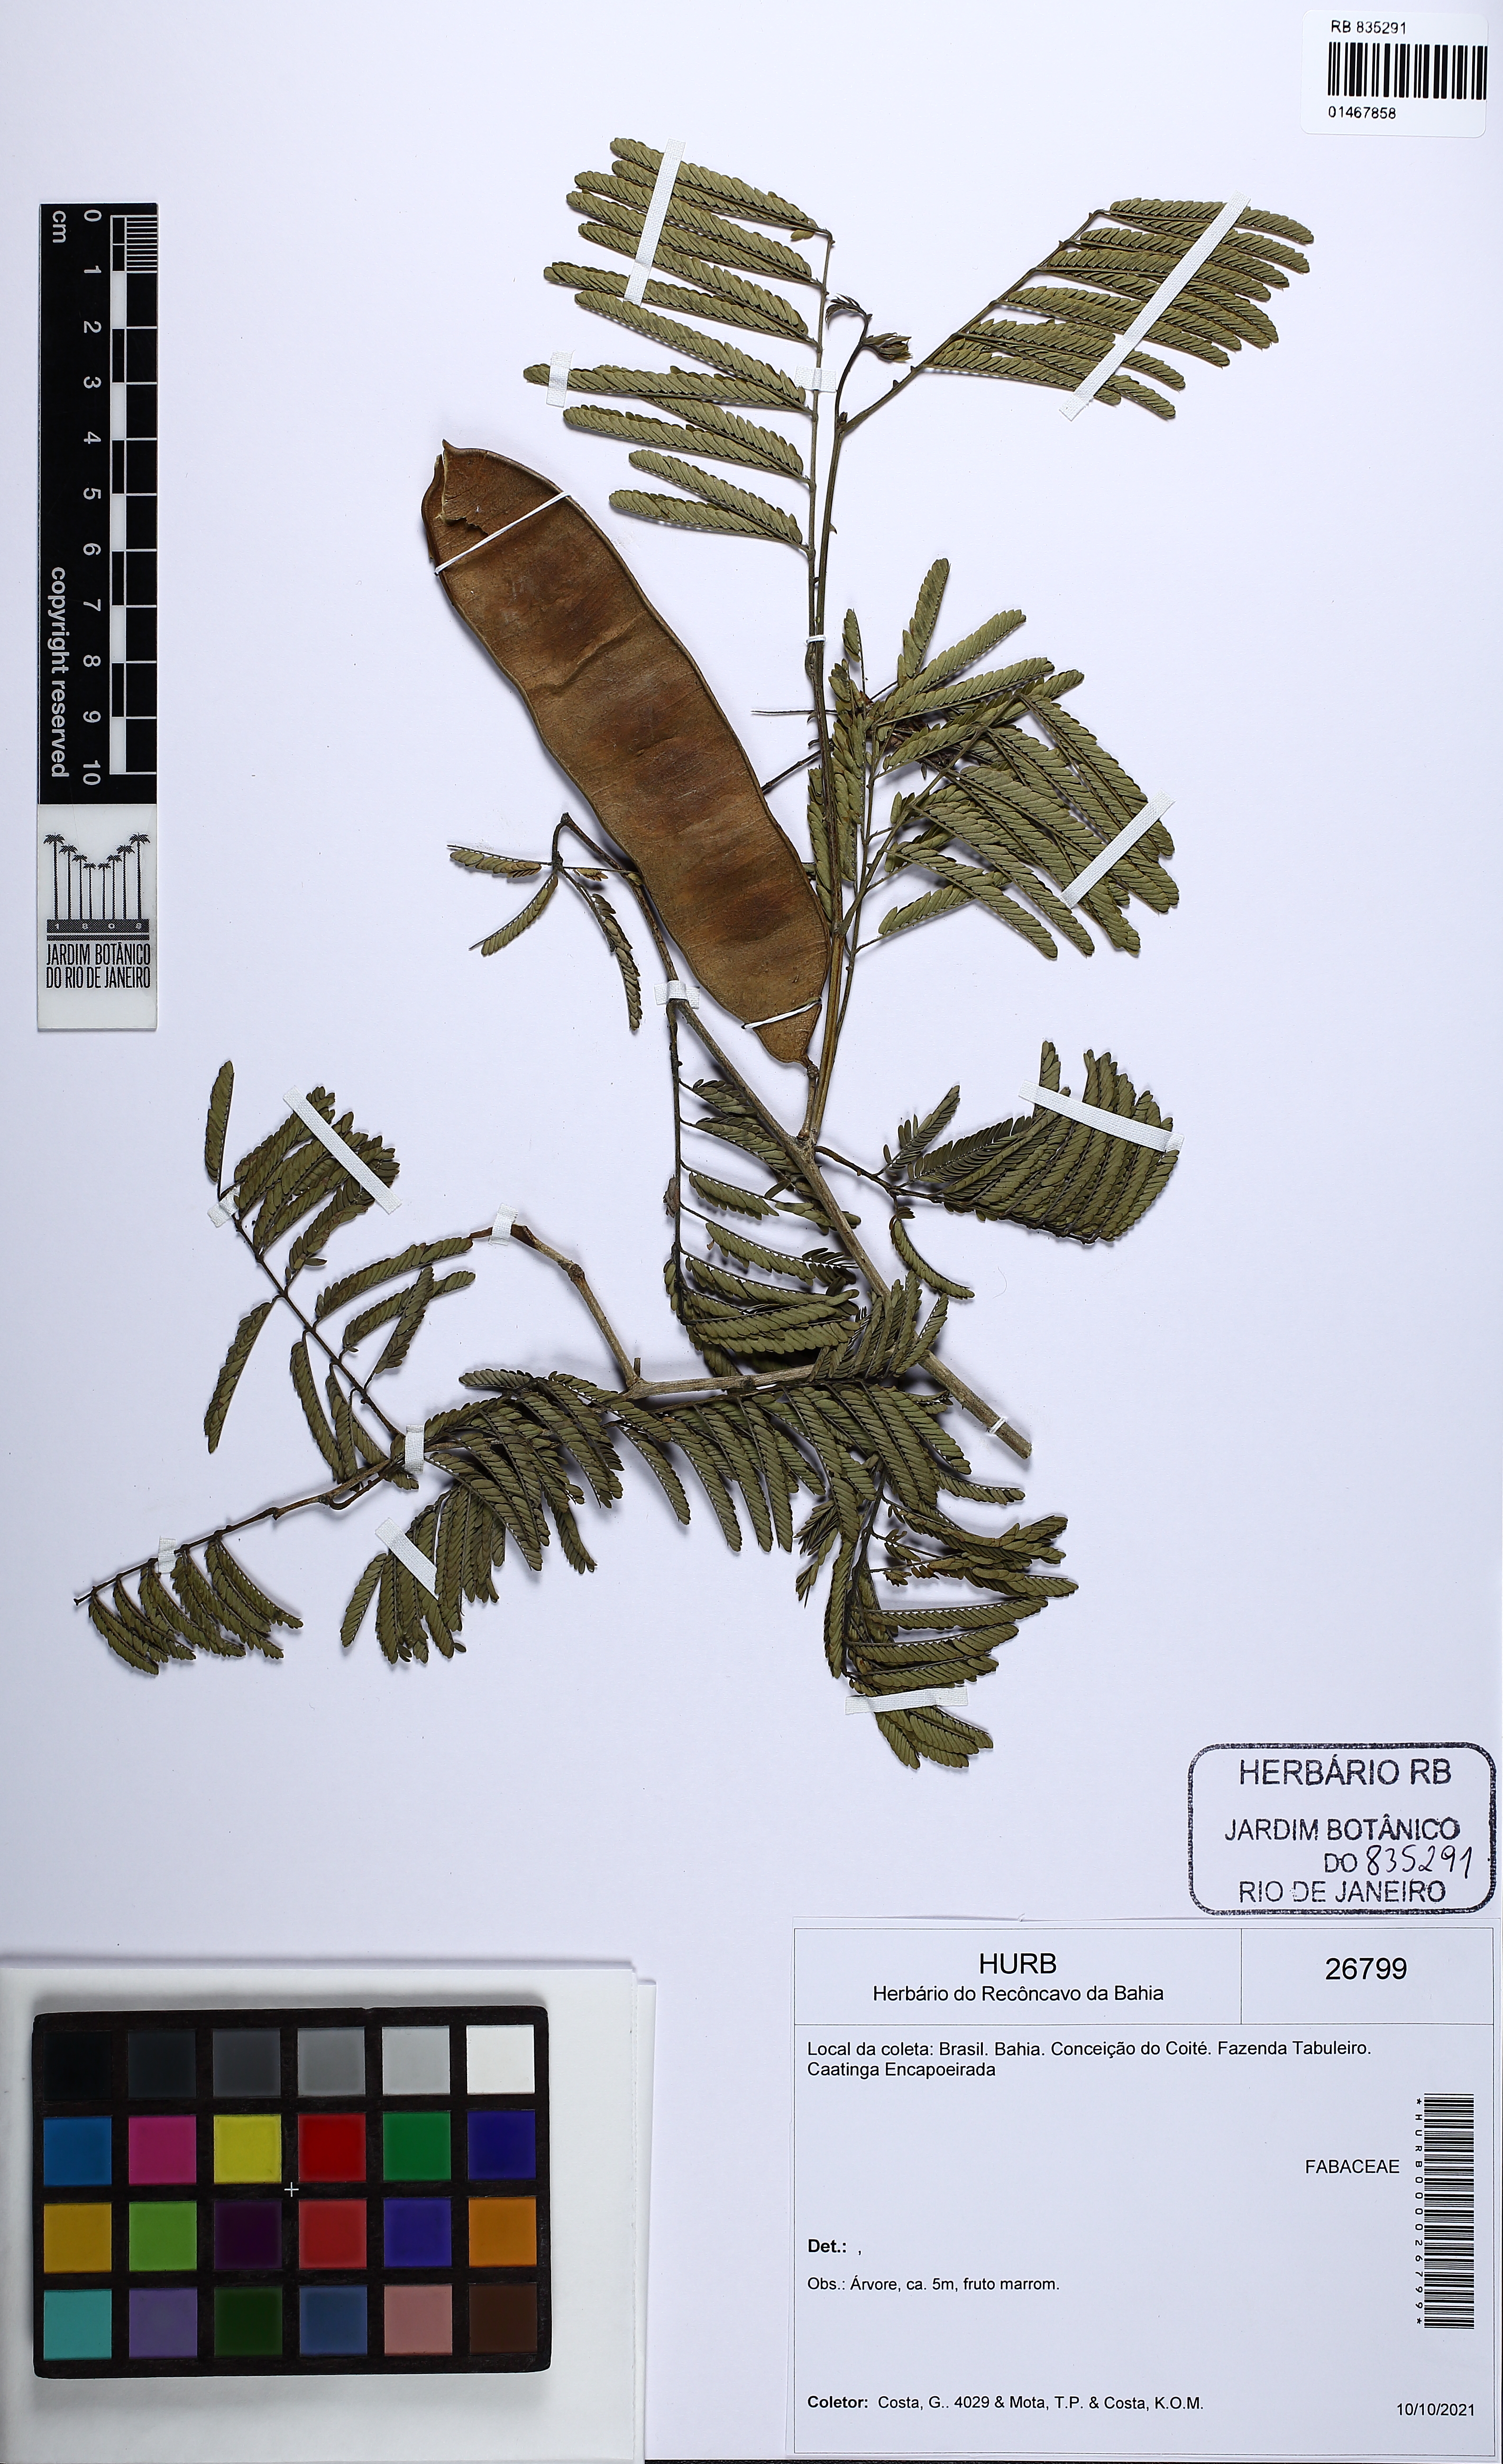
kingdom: Plantae
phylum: Tracheophyta
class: Magnoliopsida
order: Fabales
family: Fabaceae
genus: Senegalia
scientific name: Senegalia
